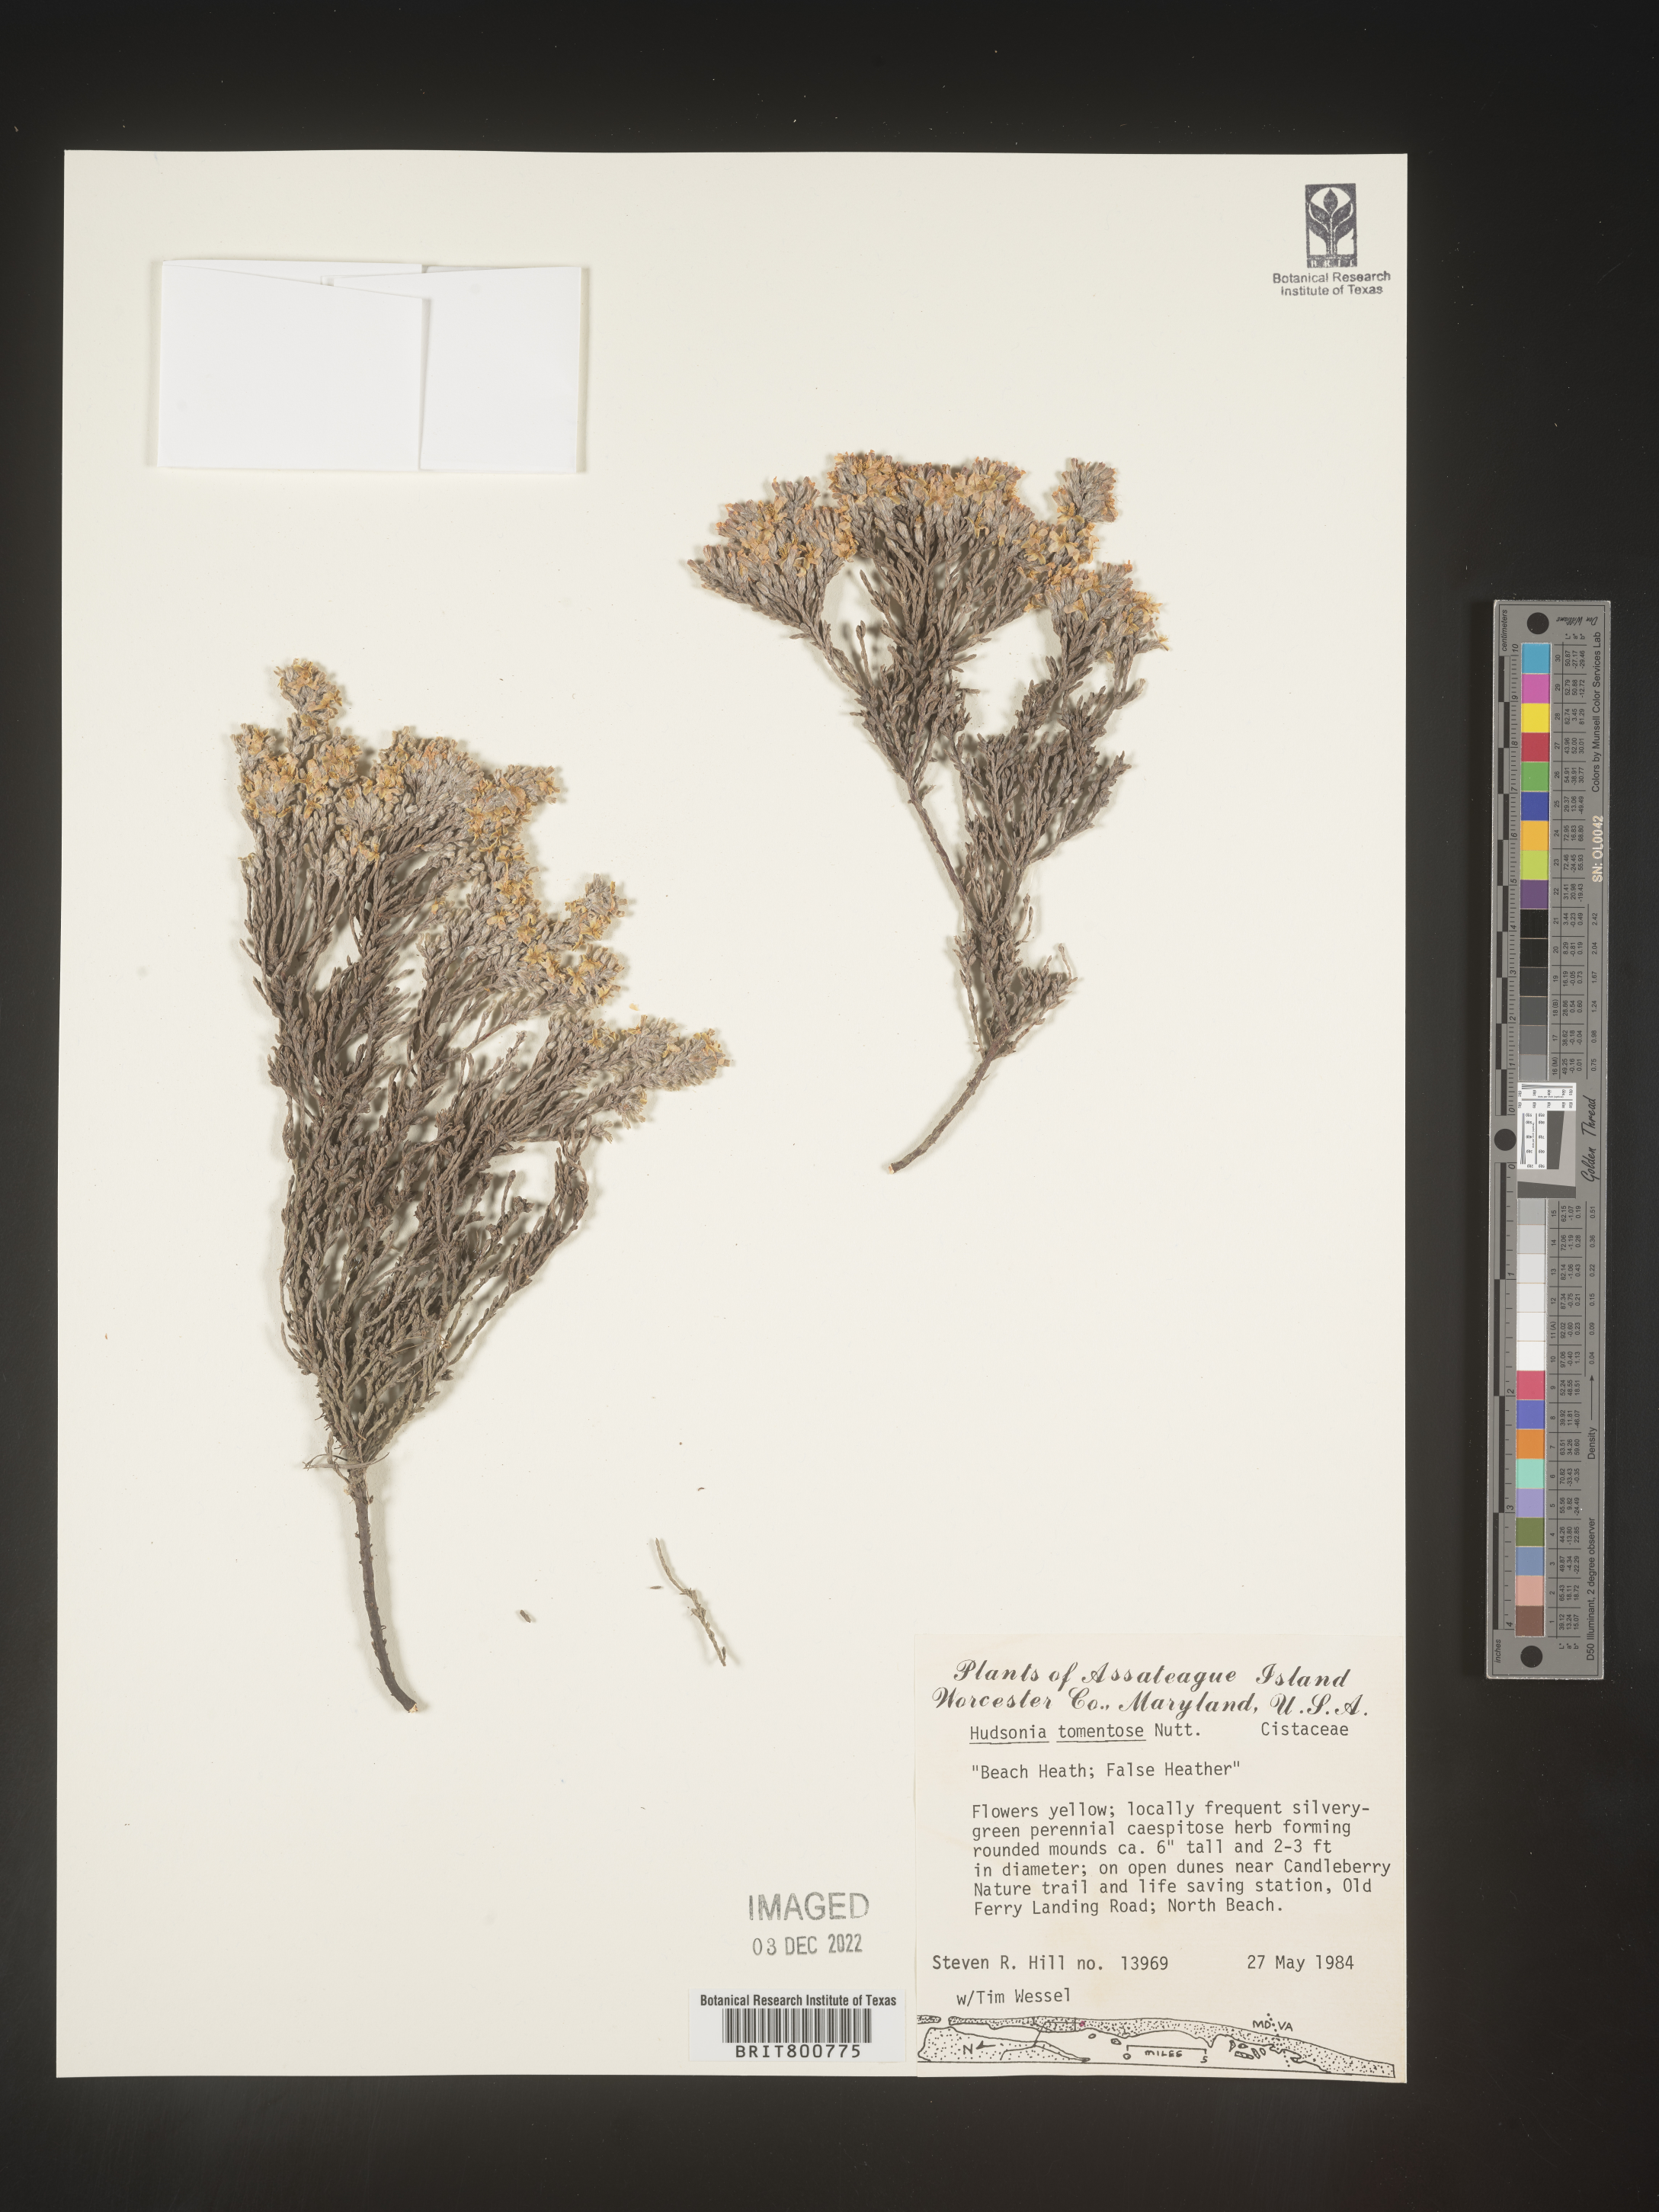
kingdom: Plantae
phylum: Tracheophyta
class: Magnoliopsida
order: Malvales
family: Cistaceae
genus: Hudsonia
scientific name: Hudsonia tomentosa
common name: Beach-heath
